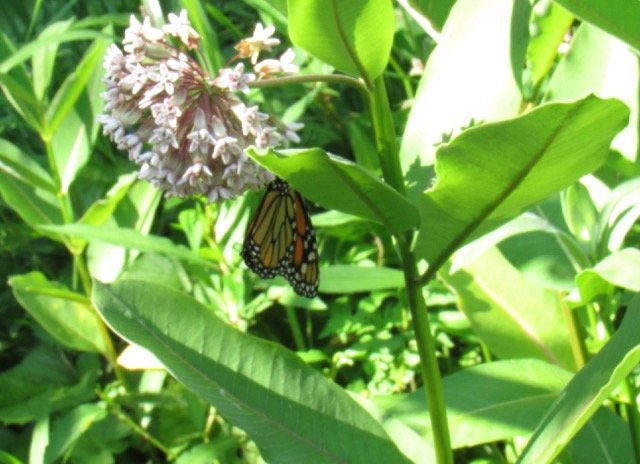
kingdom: Animalia
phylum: Arthropoda
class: Insecta
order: Lepidoptera
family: Nymphalidae
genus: Danaus
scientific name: Danaus plexippus
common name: Monarch
